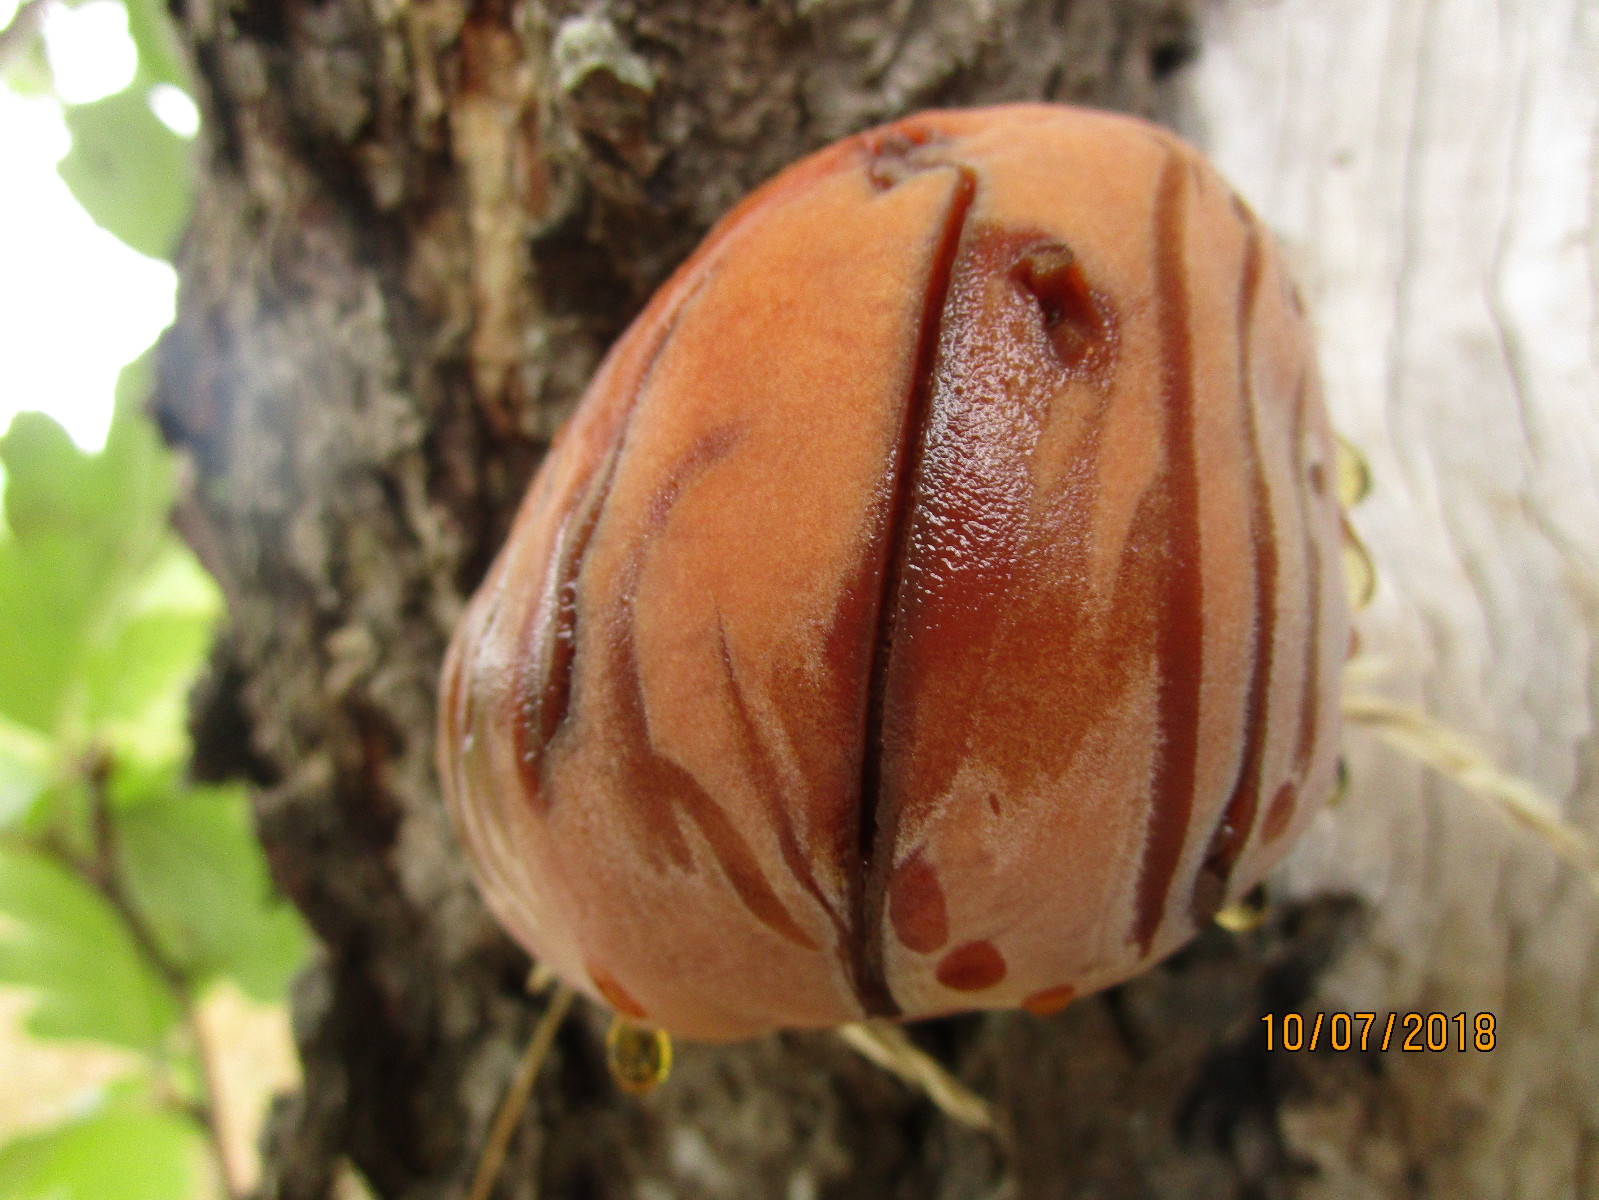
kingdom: Fungi
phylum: Basidiomycota
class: Agaricomycetes
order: Hymenochaetales
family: Hymenochaetaceae
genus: Inonotus
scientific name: Inonotus hispidus
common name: børstehåret spejlporesvamp
